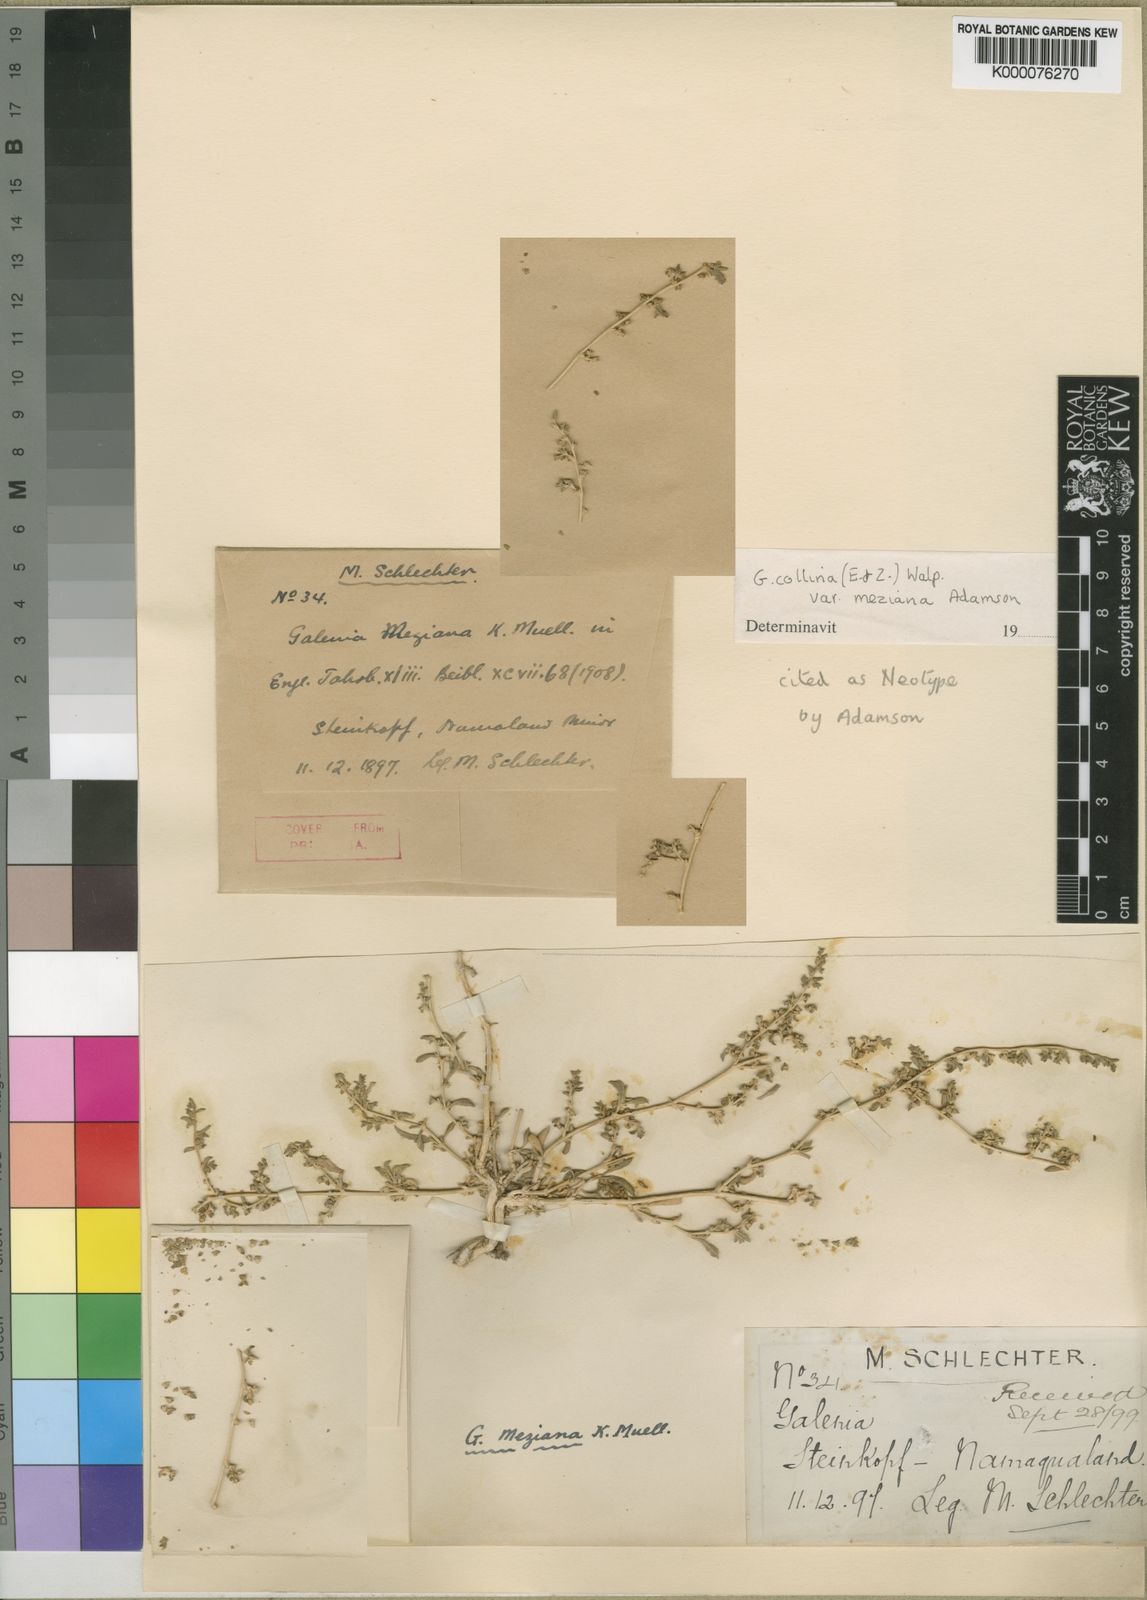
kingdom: Plantae
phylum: Tracheophyta
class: Magnoliopsida
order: Caryophyllales
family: Aizoaceae
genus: Aizoon
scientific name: Aizoon collinum
